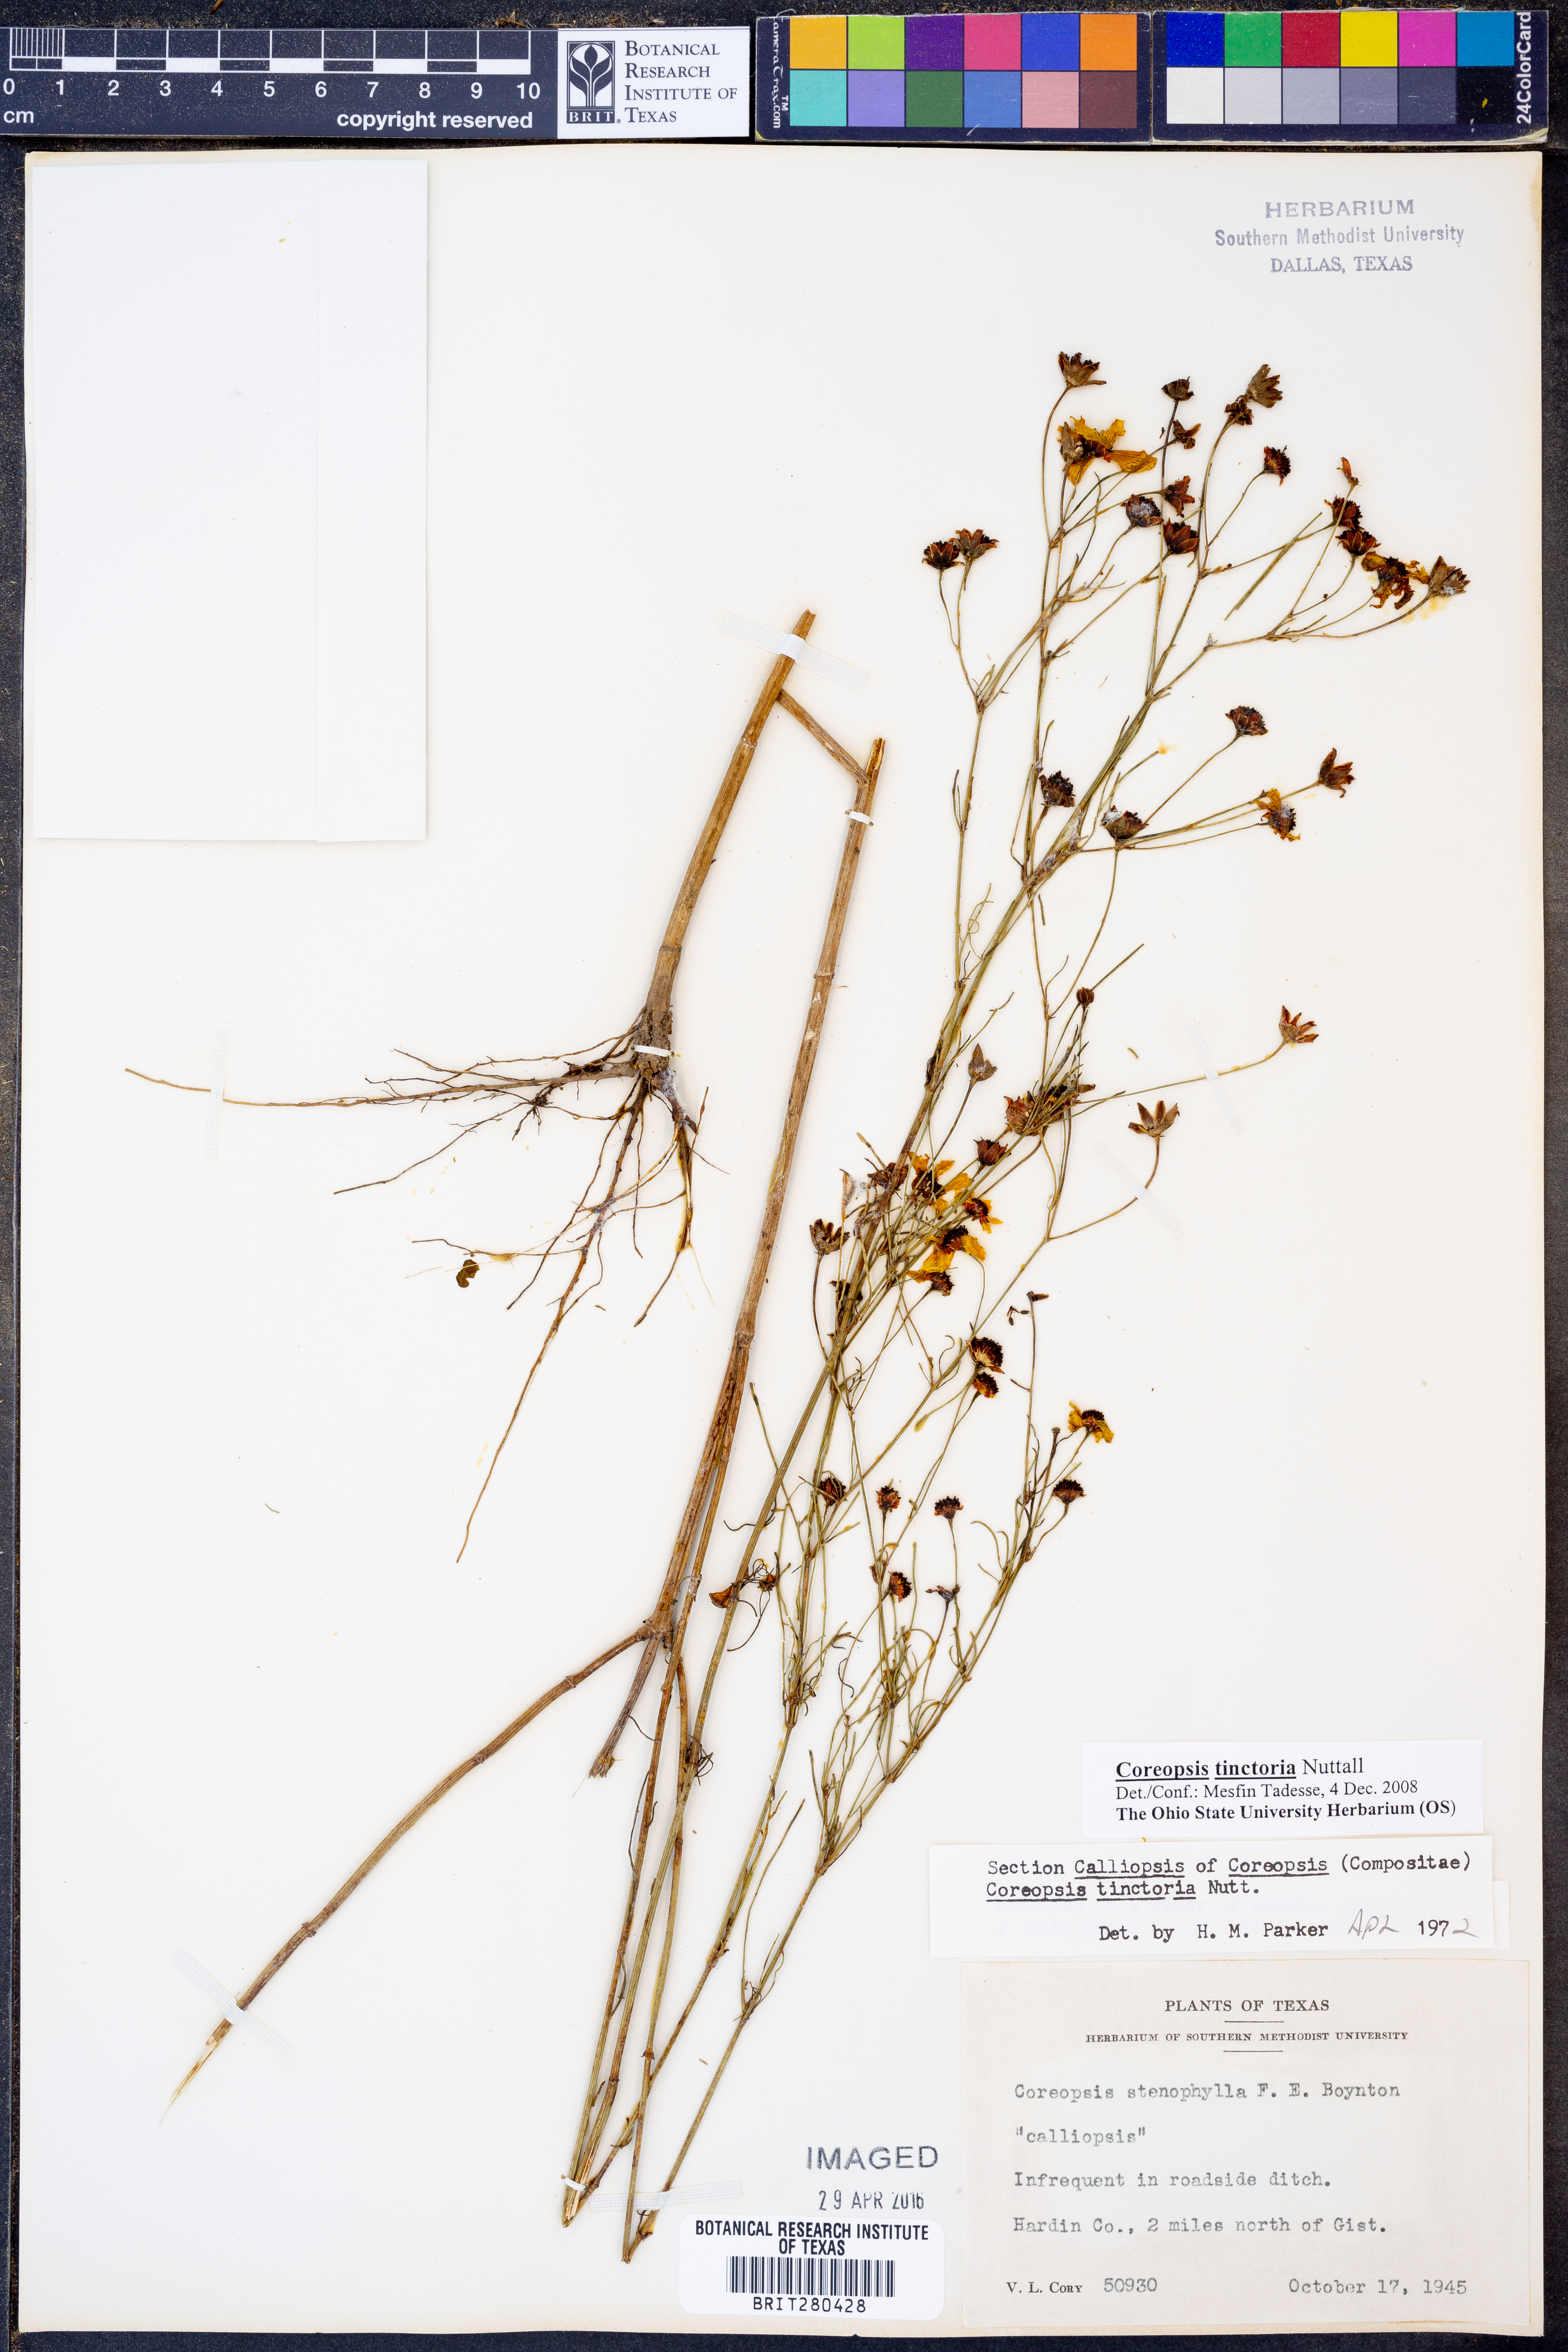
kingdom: Plantae
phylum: Tracheophyta
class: Magnoliopsida
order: Asterales
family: Asteraceae
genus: Coreopsis
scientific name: Coreopsis tinctoria
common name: Garden tickseed
